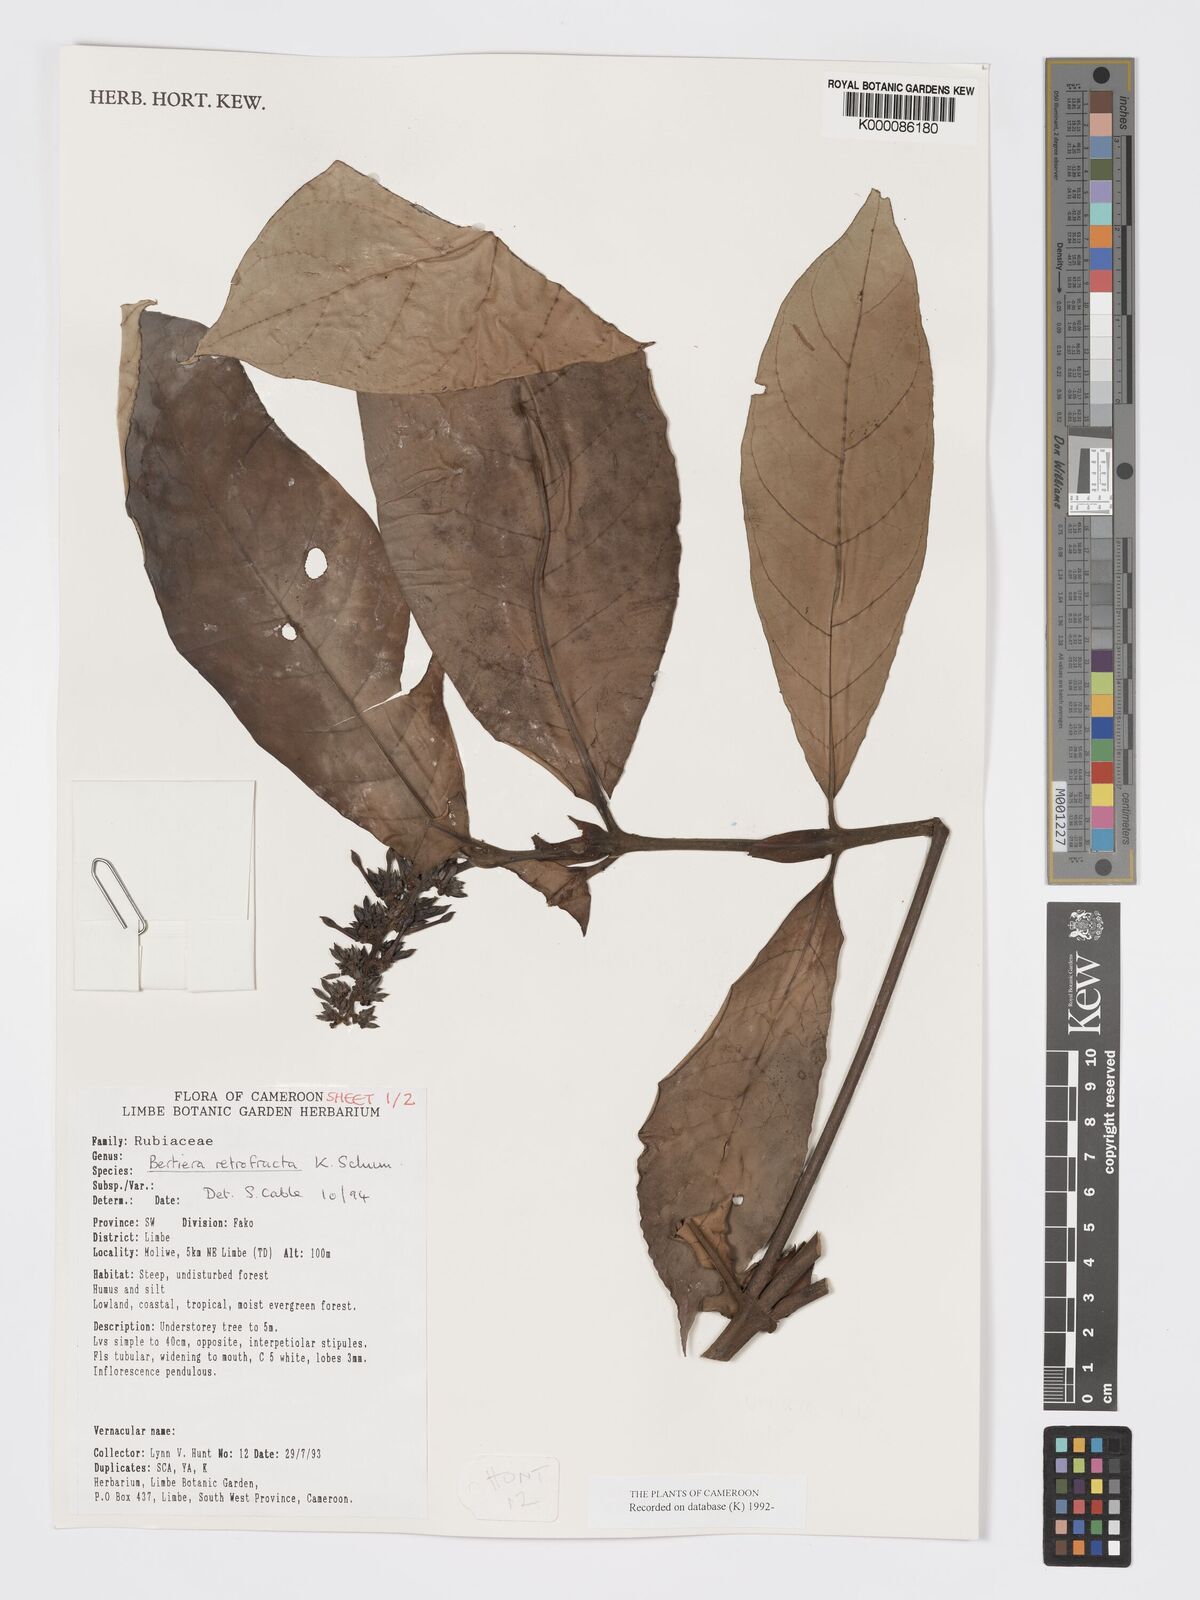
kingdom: Plantae
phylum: Tracheophyta
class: Magnoliopsida
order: Gentianales
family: Rubiaceae
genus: Bertiera
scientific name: Bertiera retrofracta
